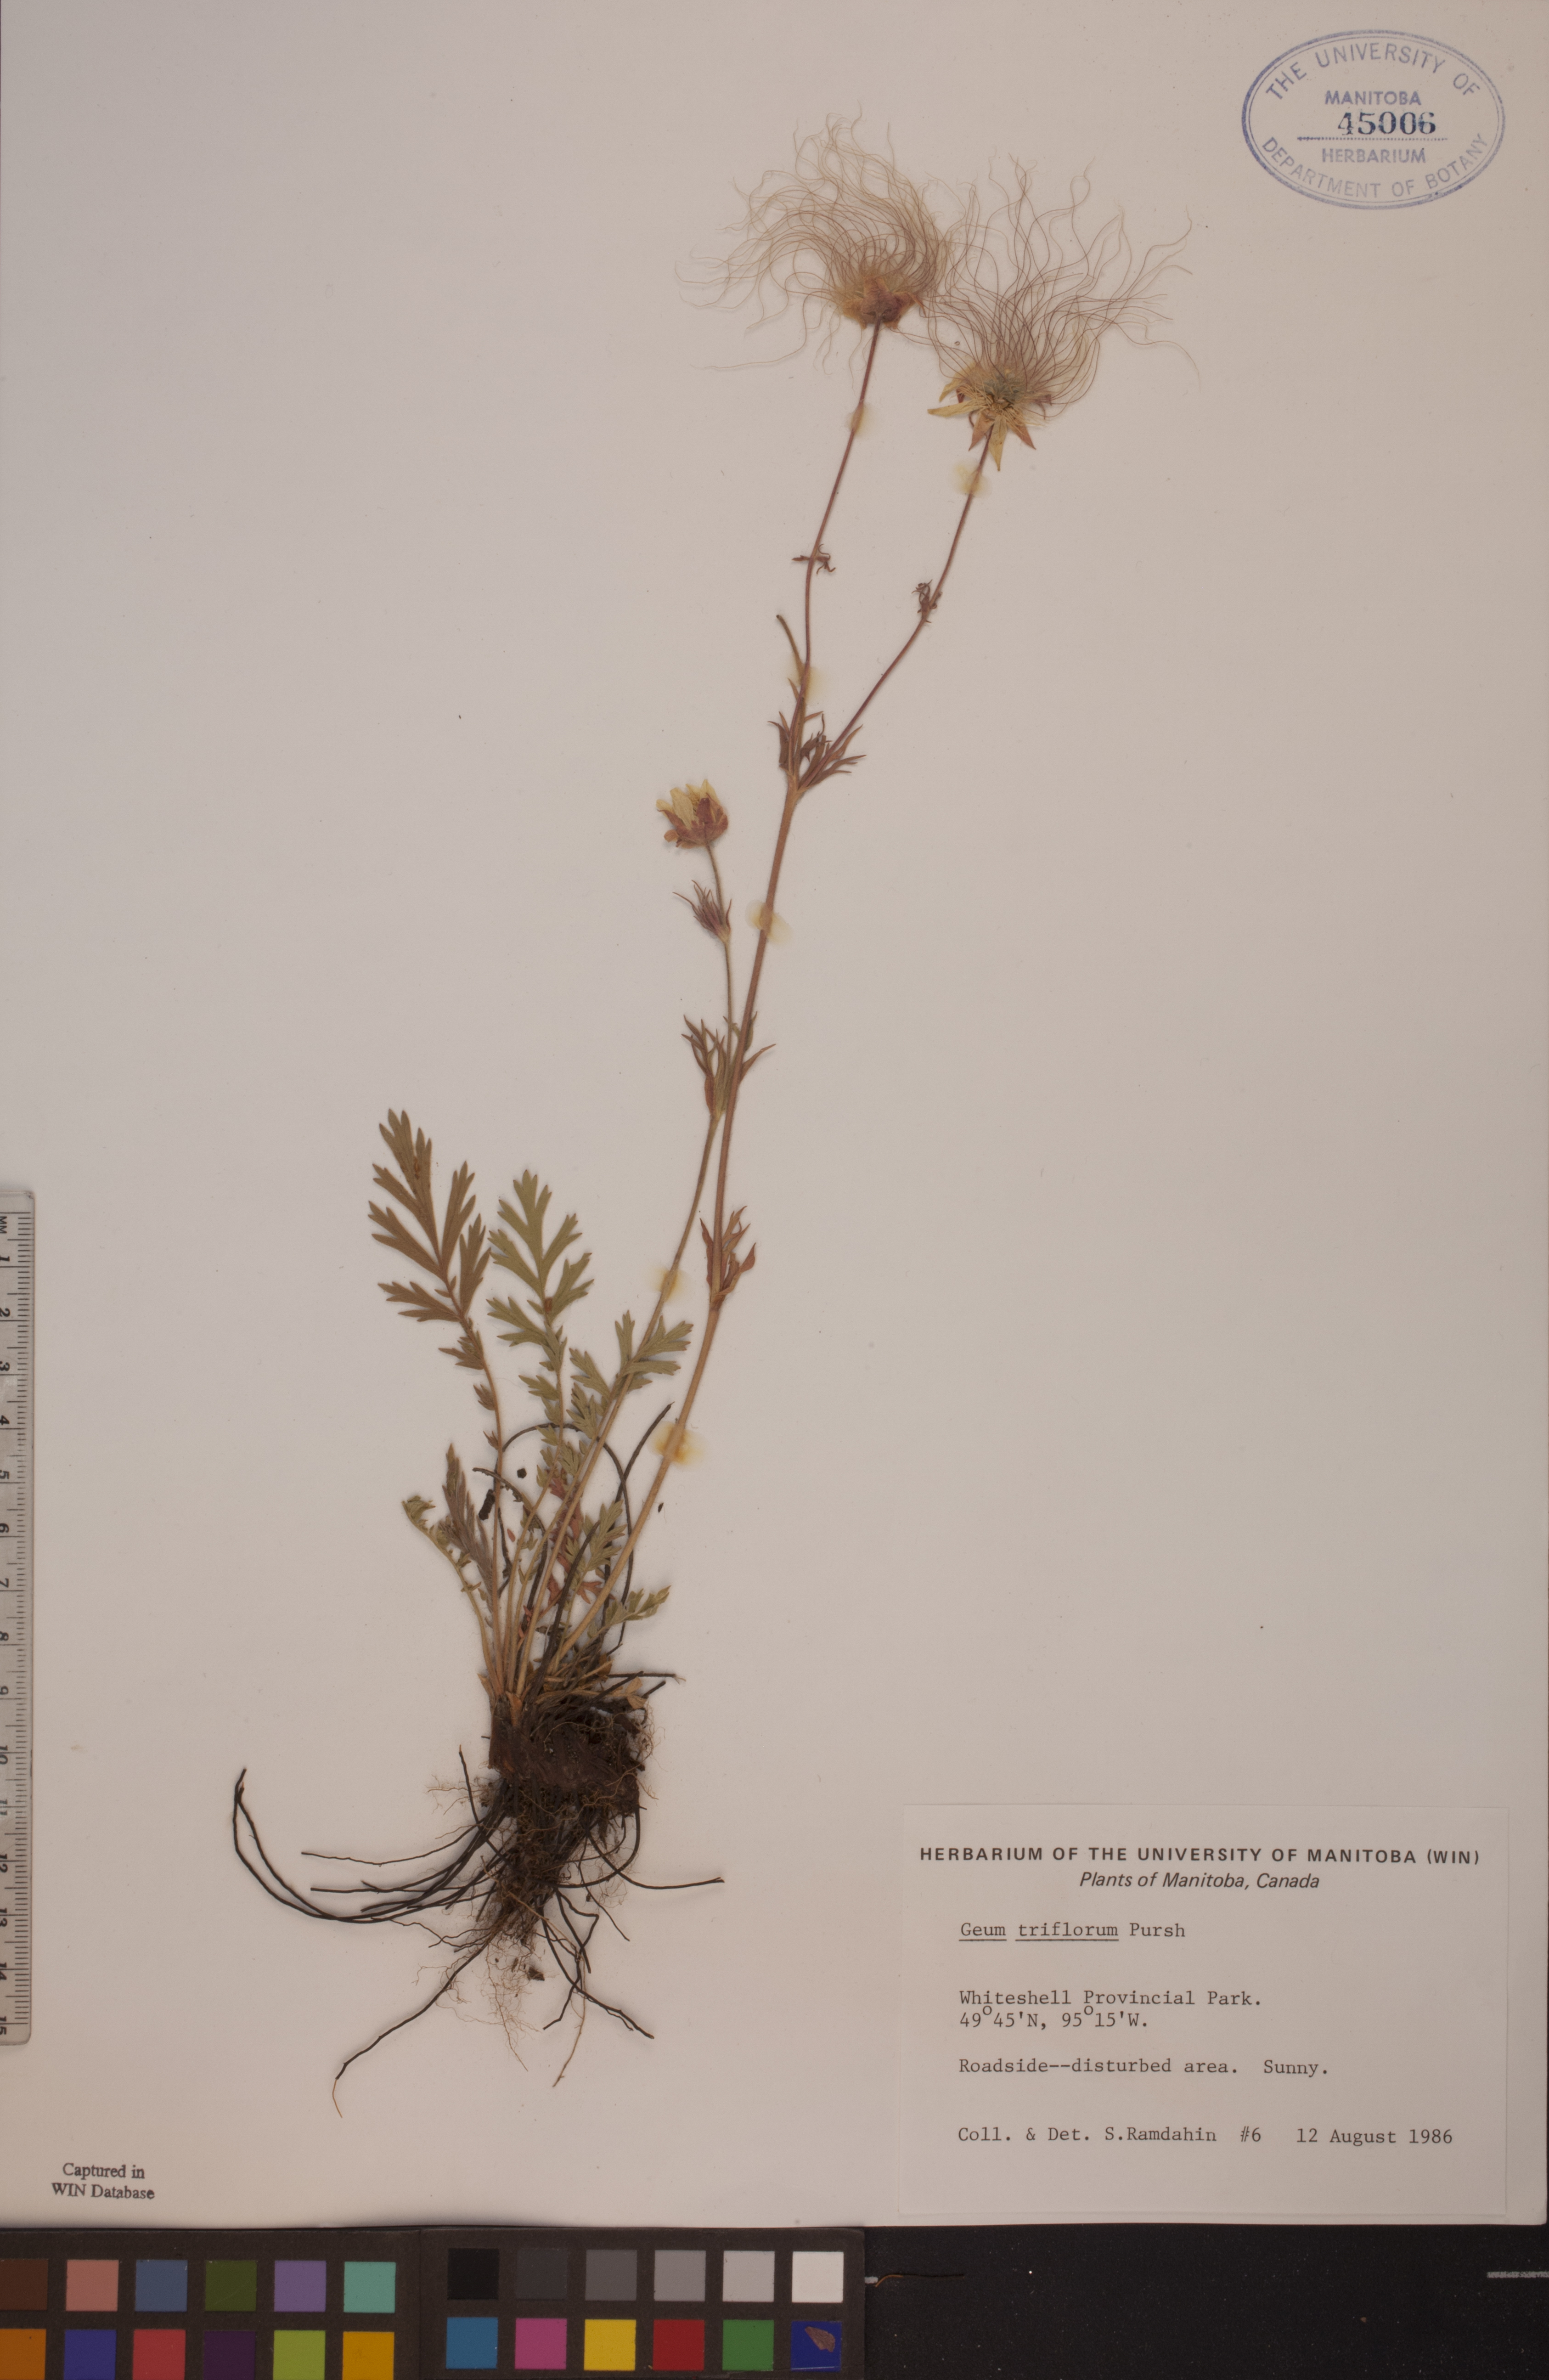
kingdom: Plantae
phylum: Tracheophyta
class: Magnoliopsida
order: Rosales
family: Rosaceae
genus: Geum
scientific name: Geum triflorum
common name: Old man's whiskers
